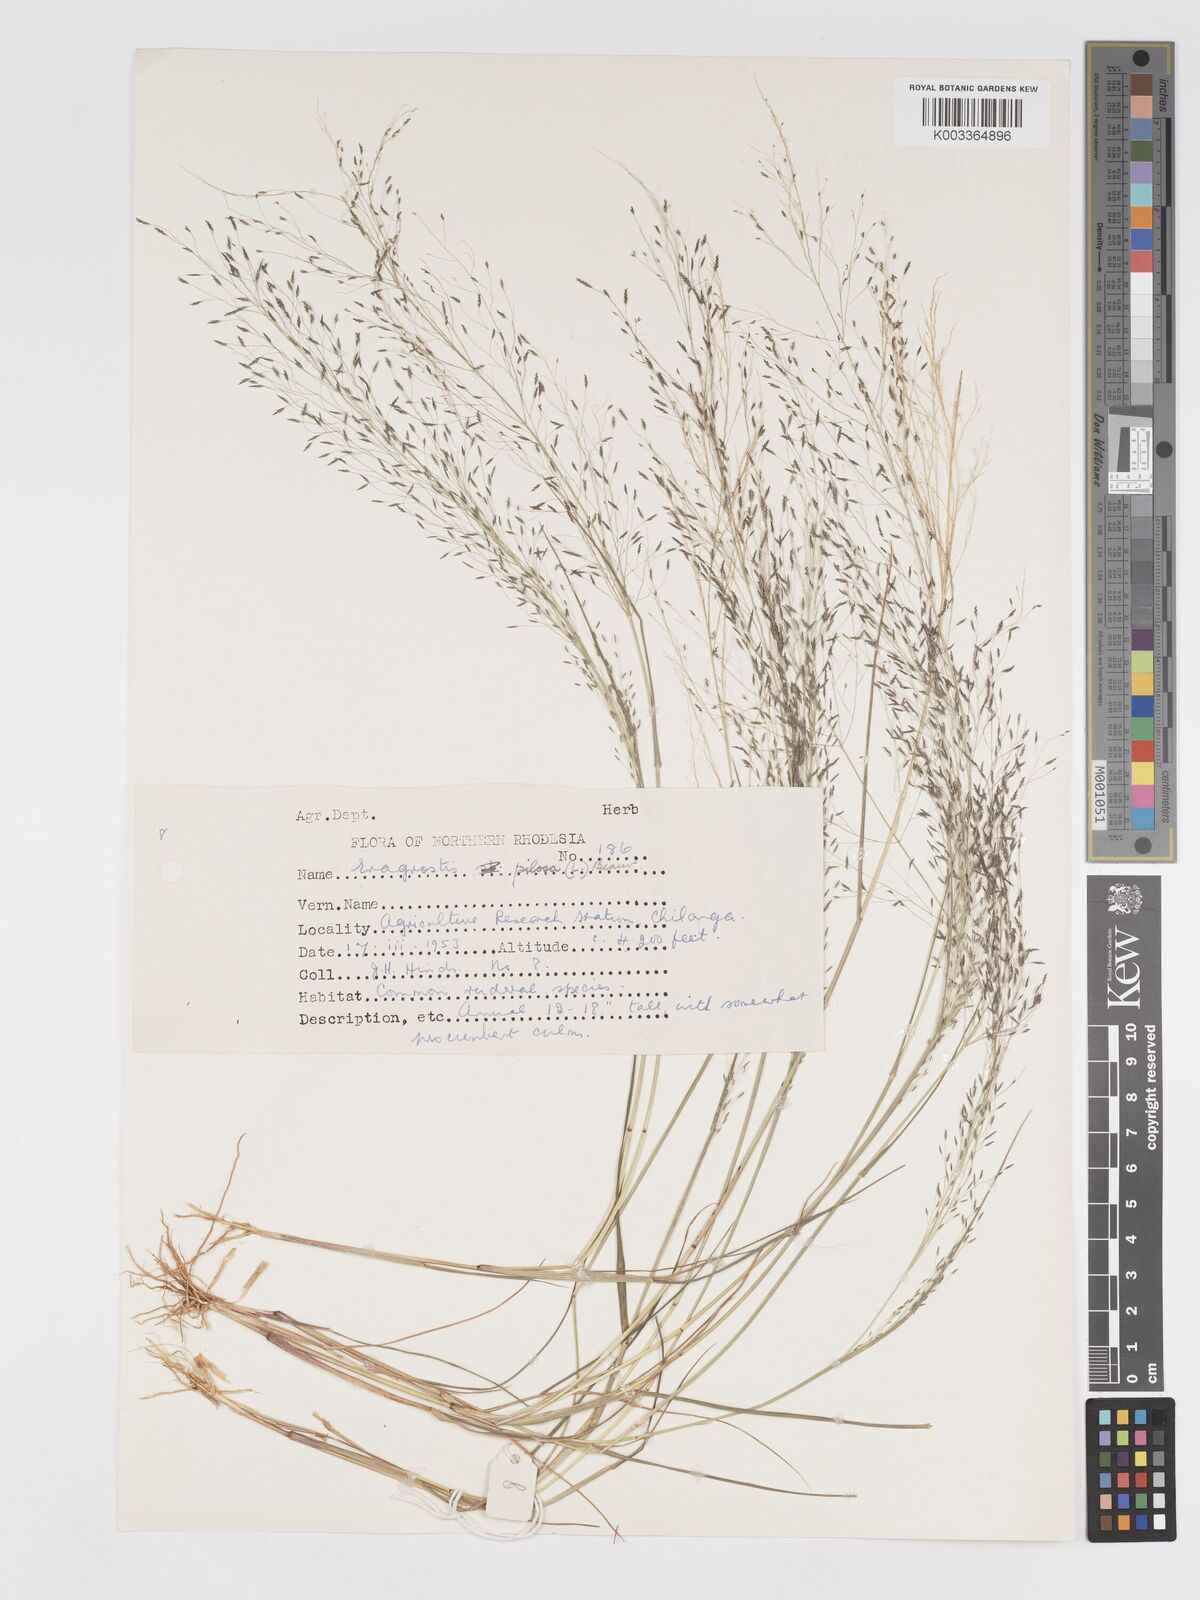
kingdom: Plantae
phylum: Tracheophyta
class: Liliopsida
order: Poales
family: Poaceae
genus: Eragrostis
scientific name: Eragrostis pilosa
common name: Indian lovegrass
